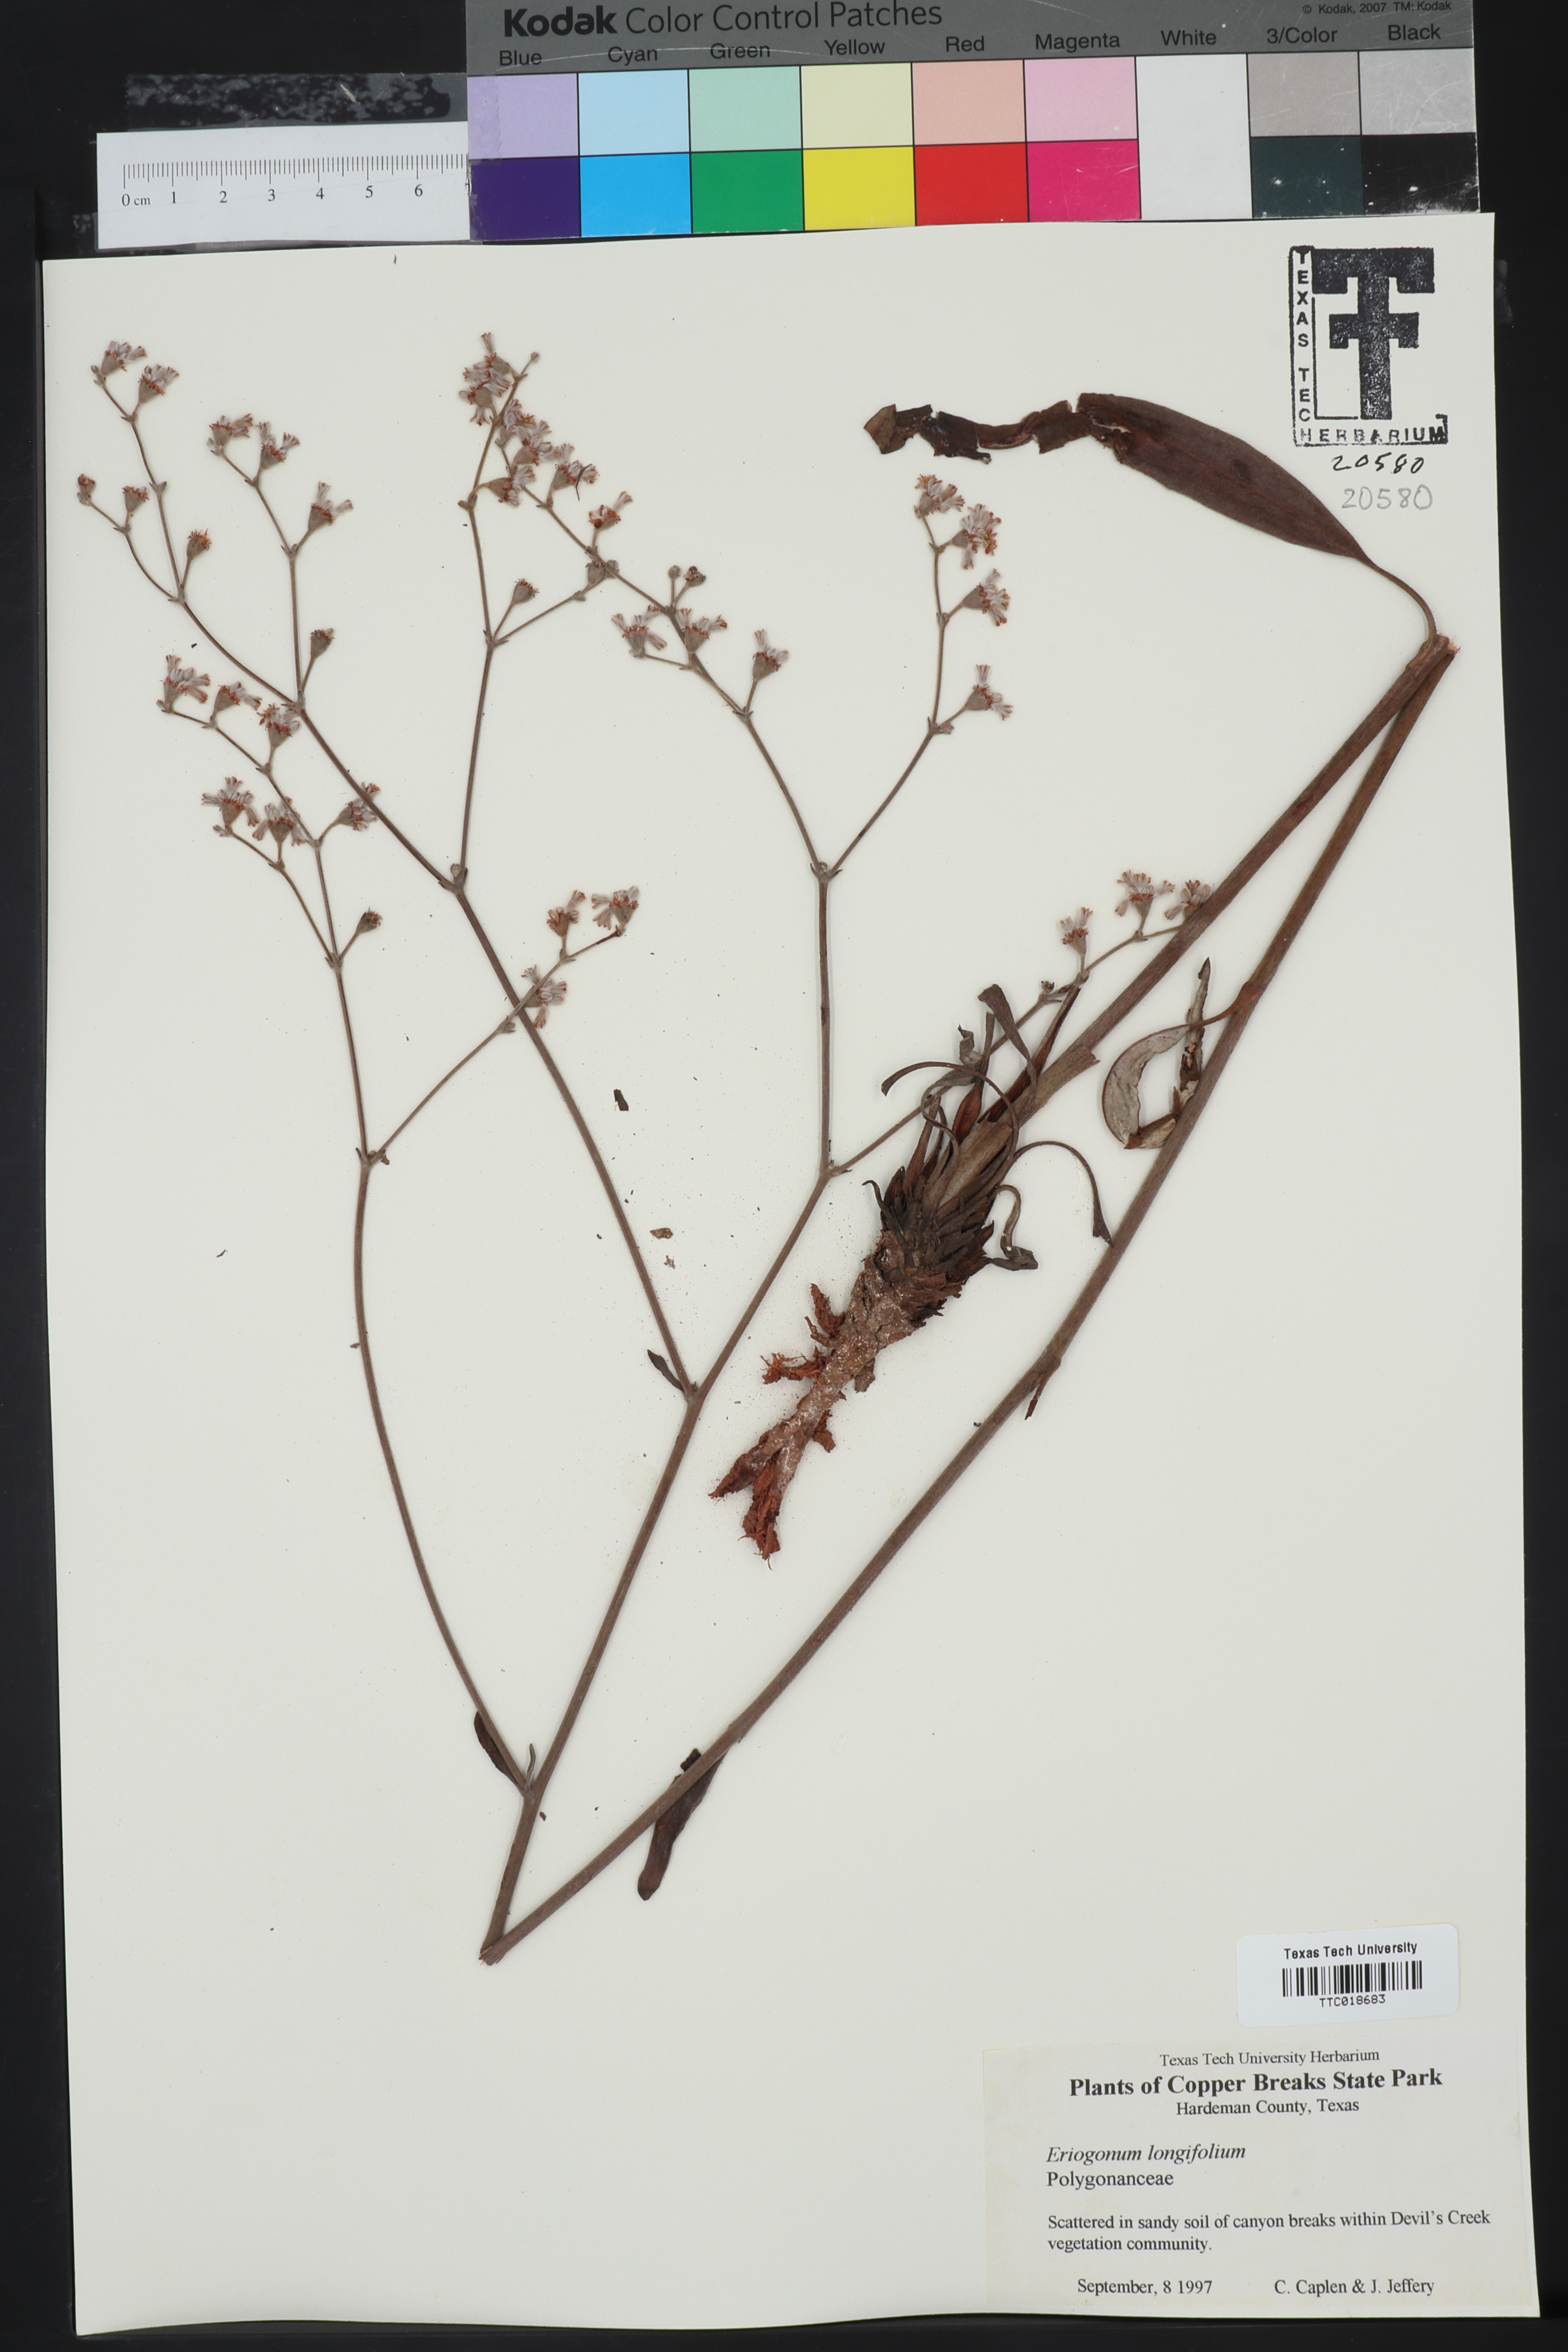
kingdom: Plantae
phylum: Tracheophyta
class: Magnoliopsida
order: Caryophyllales
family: Polygonaceae
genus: Eriogonum
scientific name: Eriogonum longifolium
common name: Longleaf wild buckwheat
